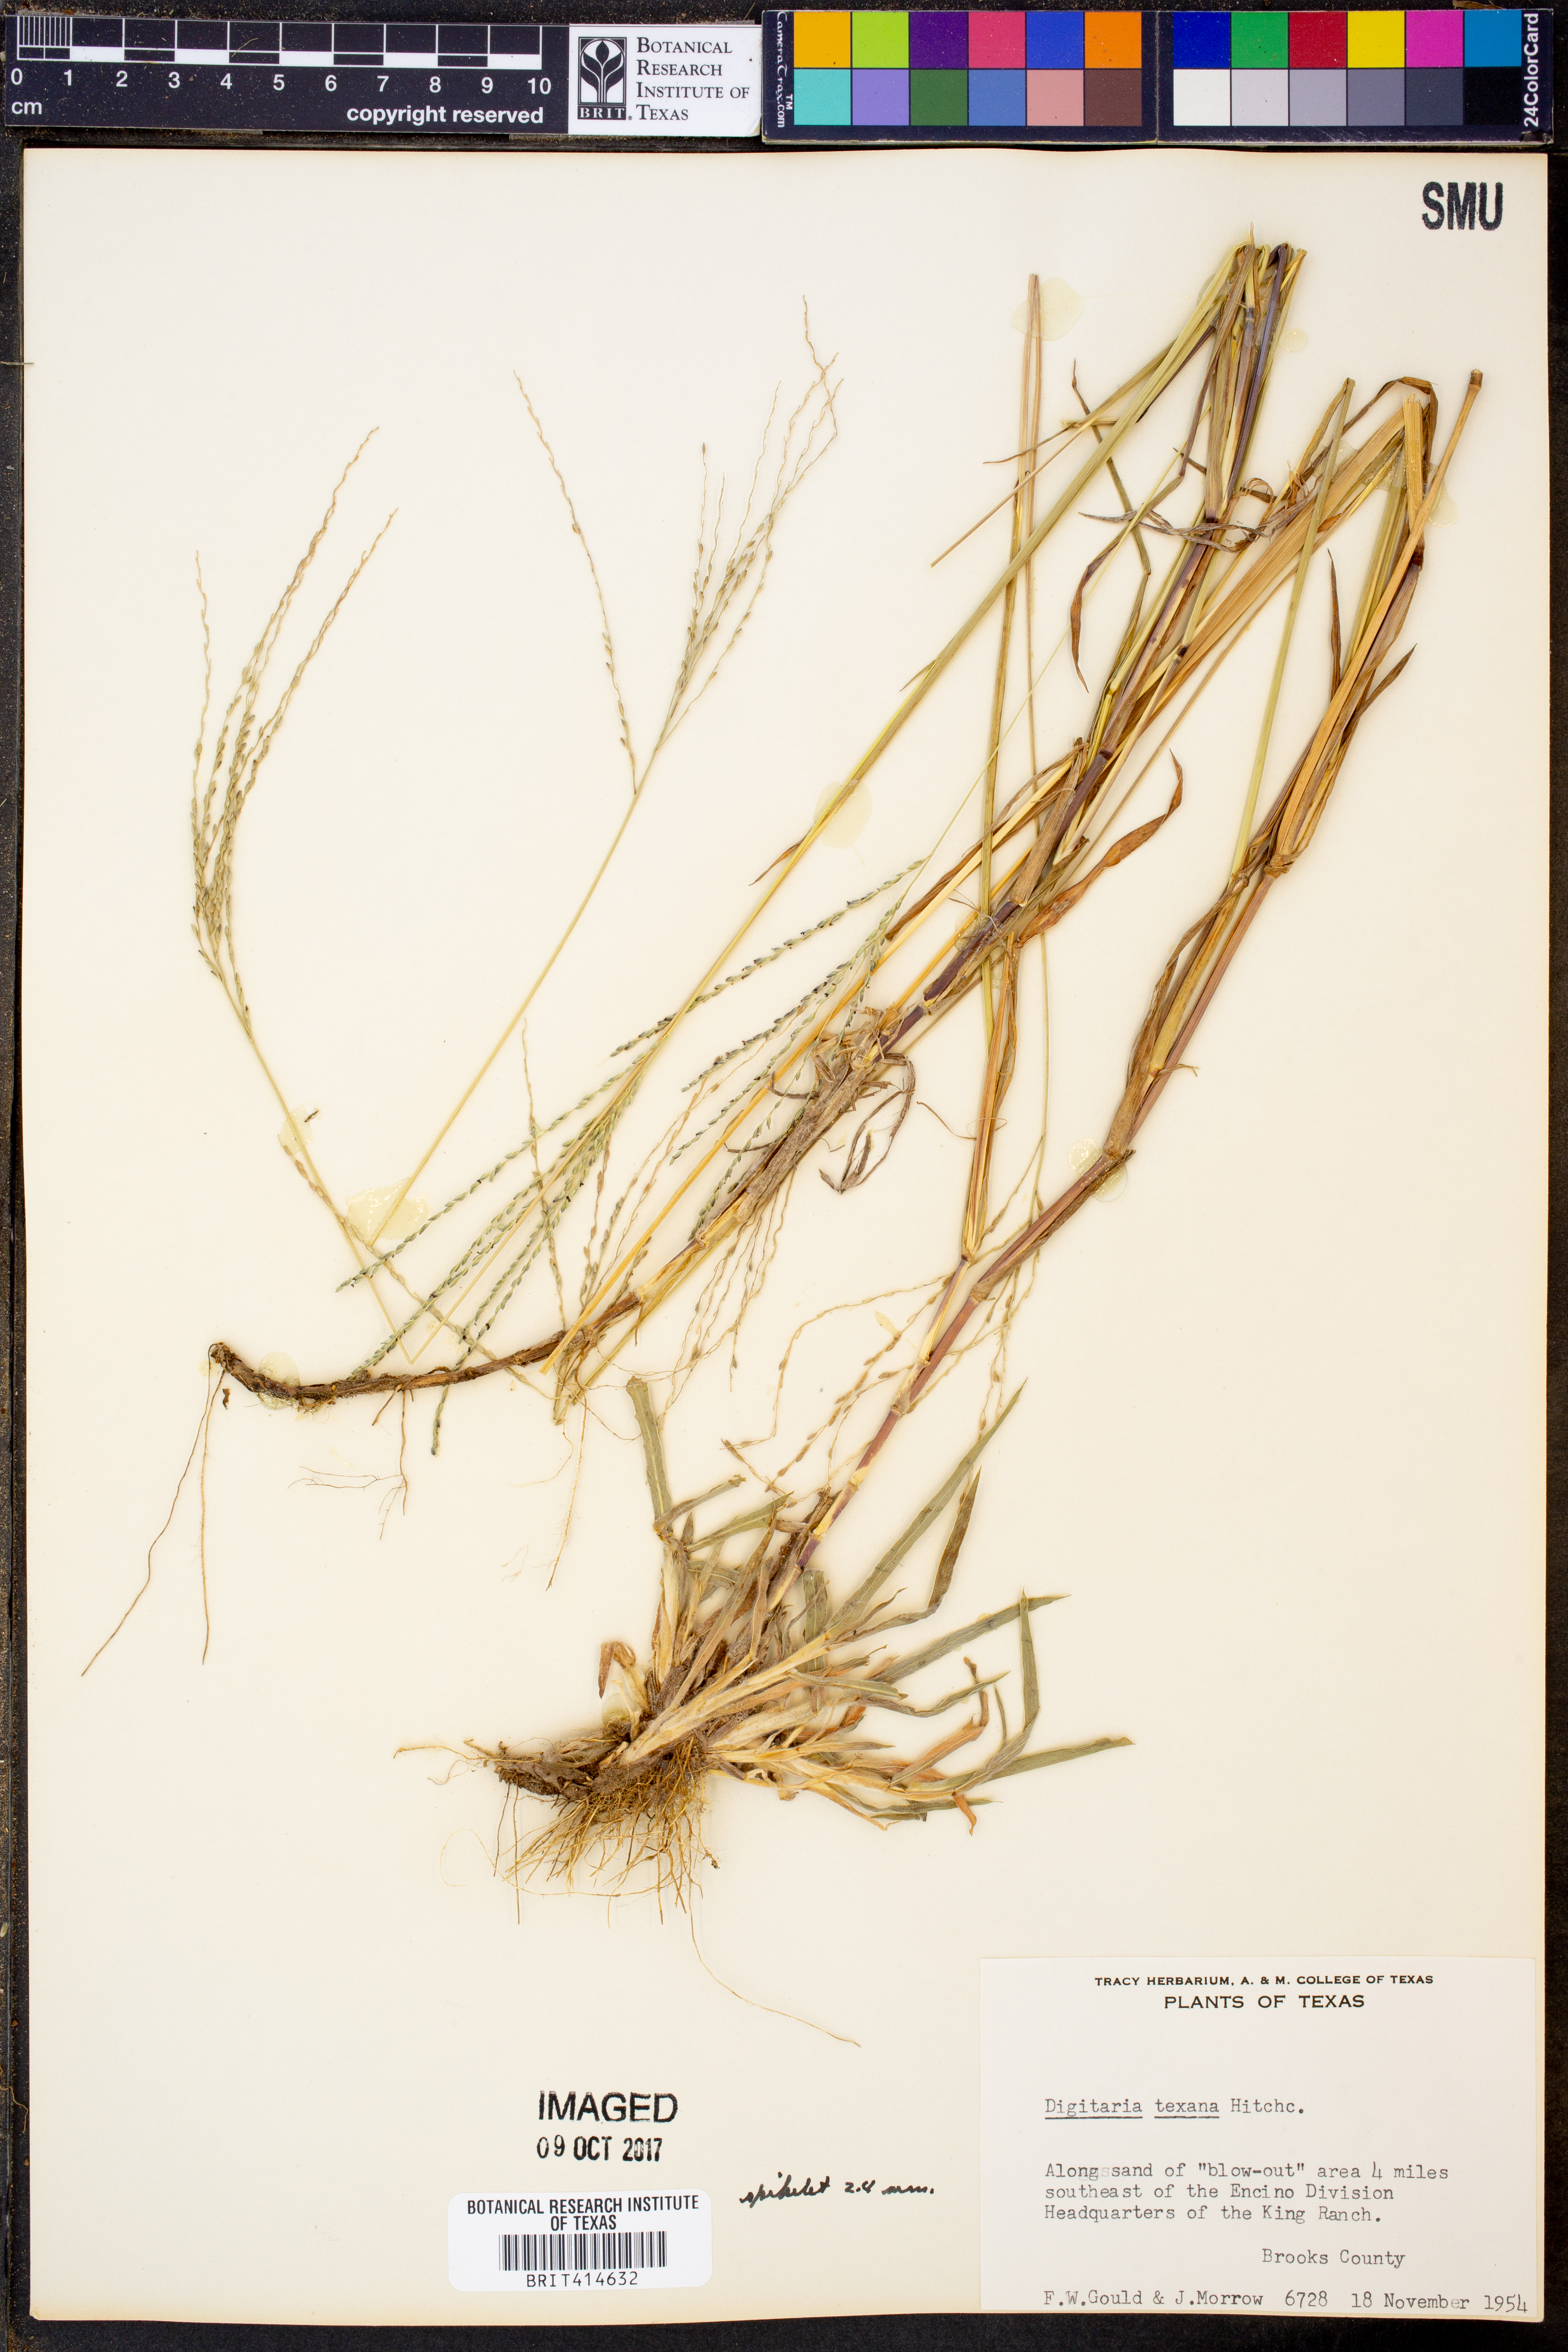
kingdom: Plantae
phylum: Tracheophyta
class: Liliopsida
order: Poales
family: Poaceae
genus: Digitaria
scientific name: Digitaria texana
